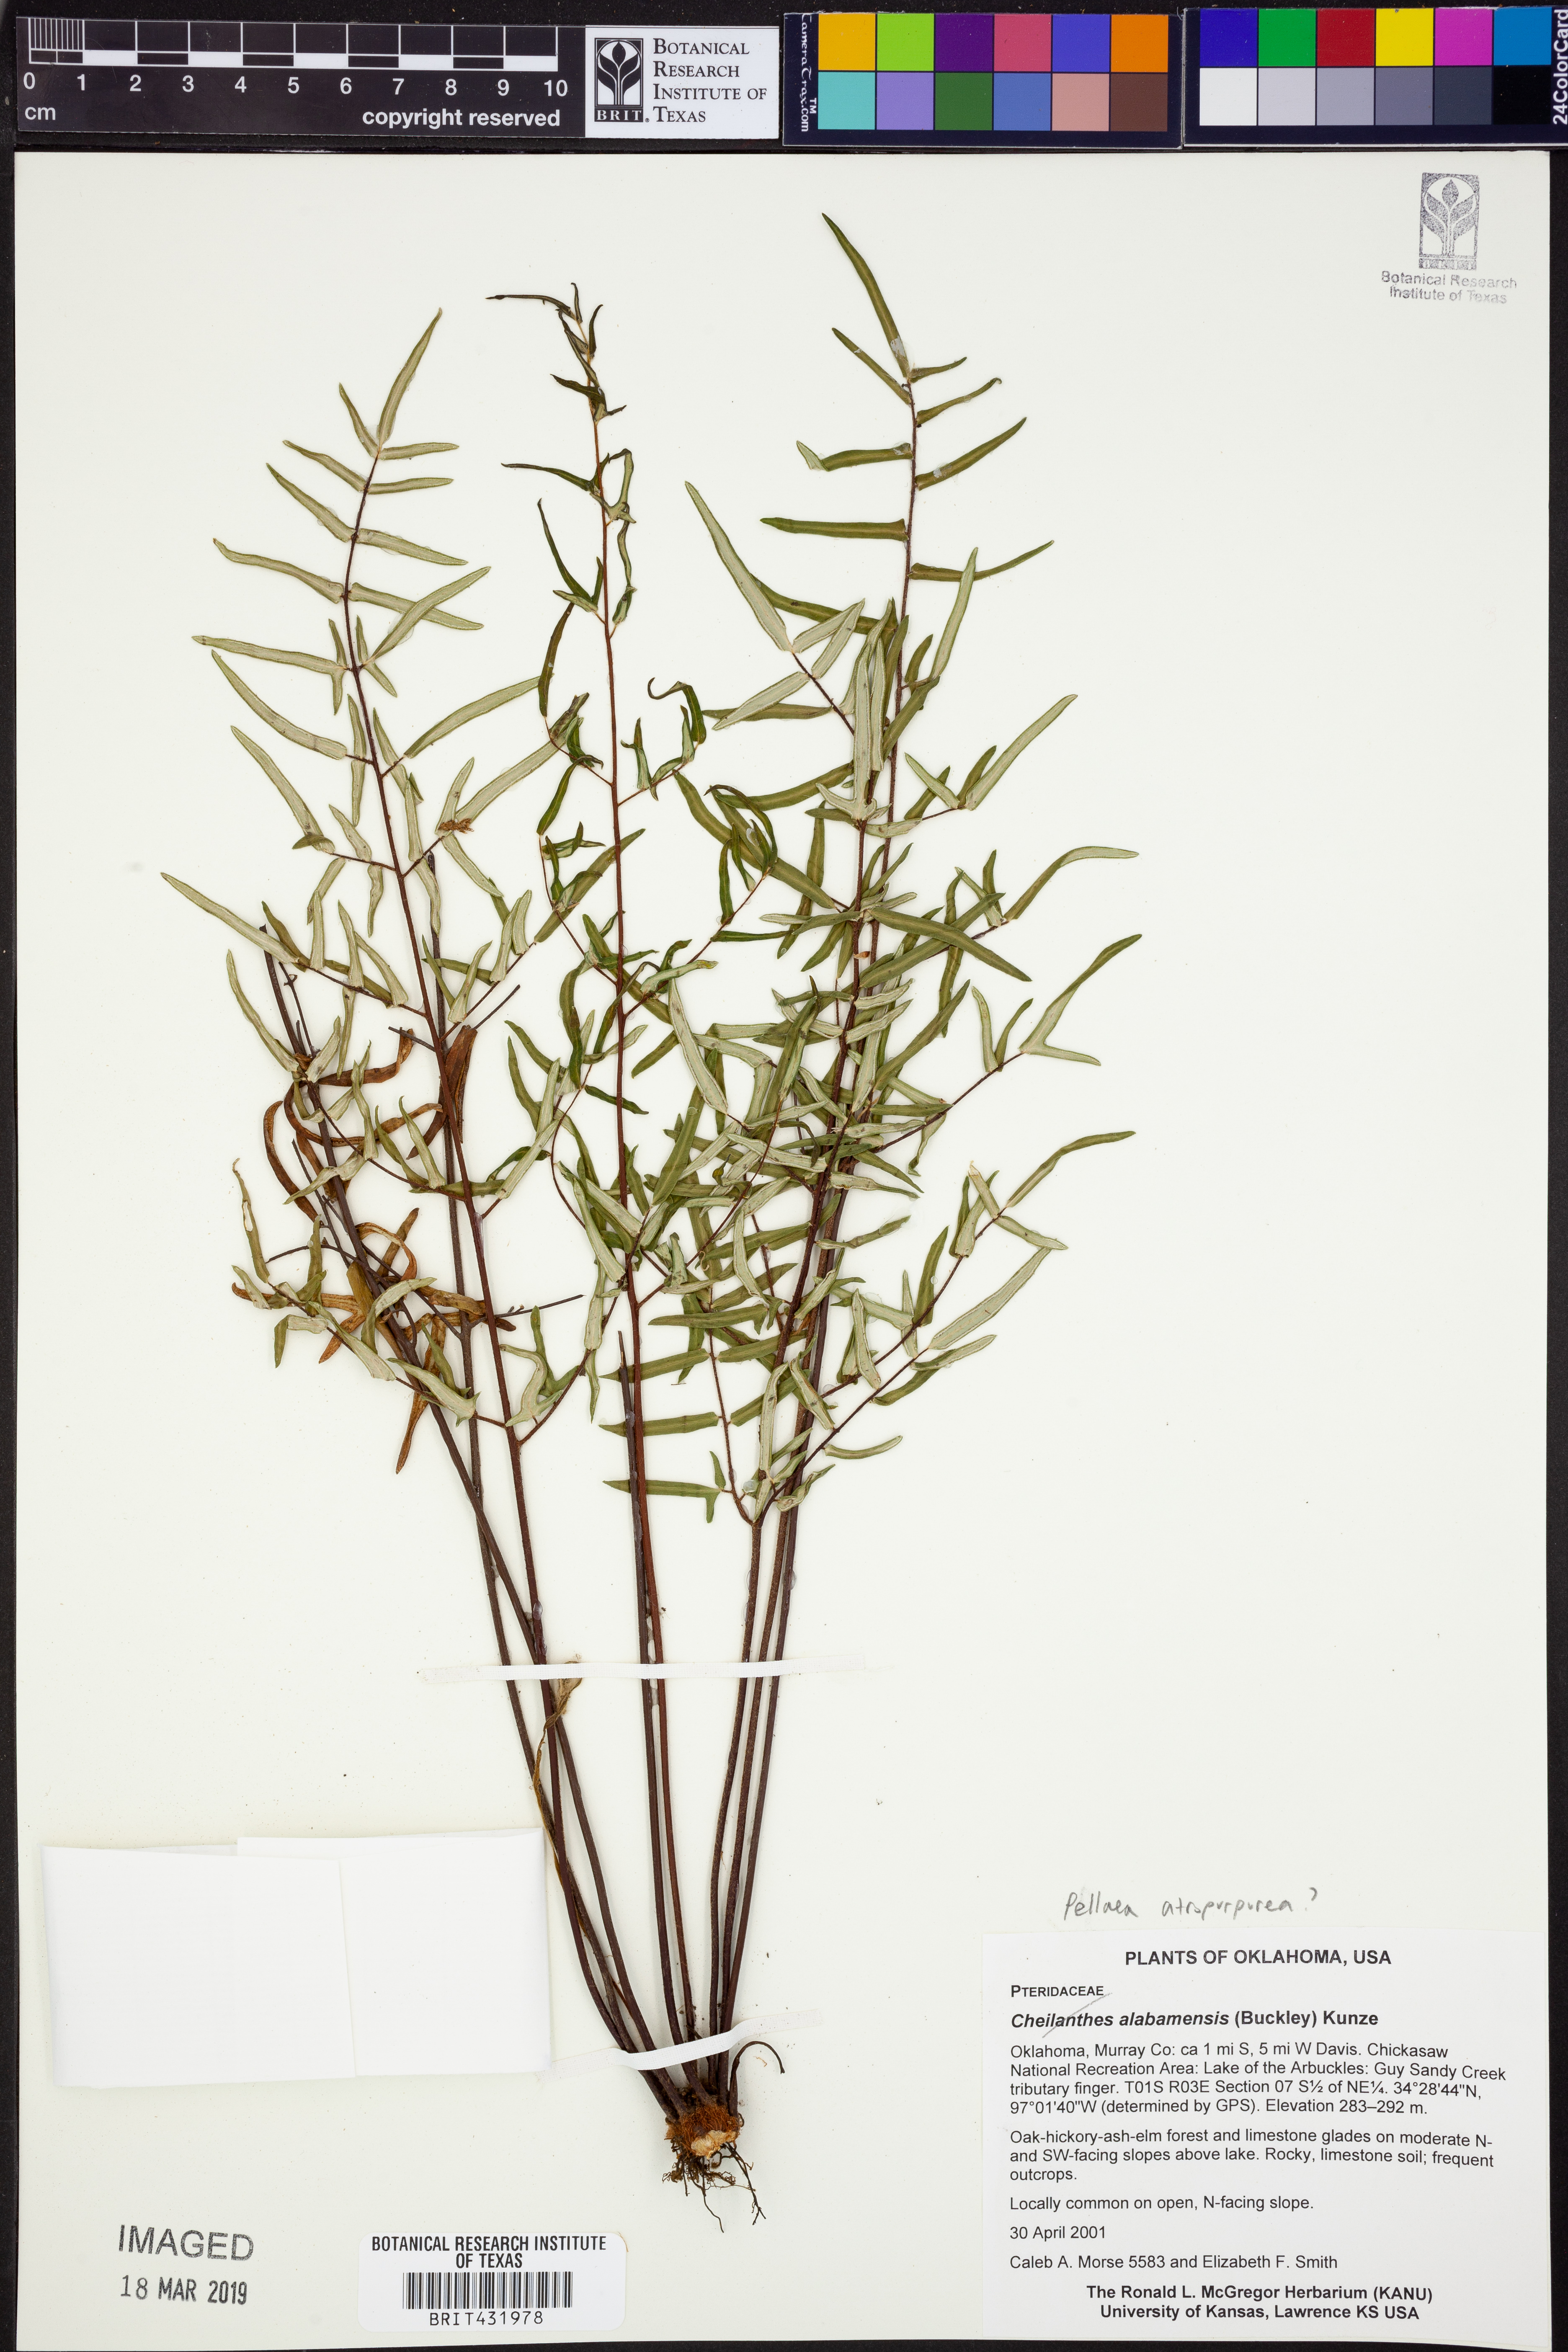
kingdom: Plantae
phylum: Tracheophyta
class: Polypodiopsida
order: Polypodiales
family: Pteridaceae
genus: Pellaea
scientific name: Pellaea atropurpurea
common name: Hairy cliffbrake
